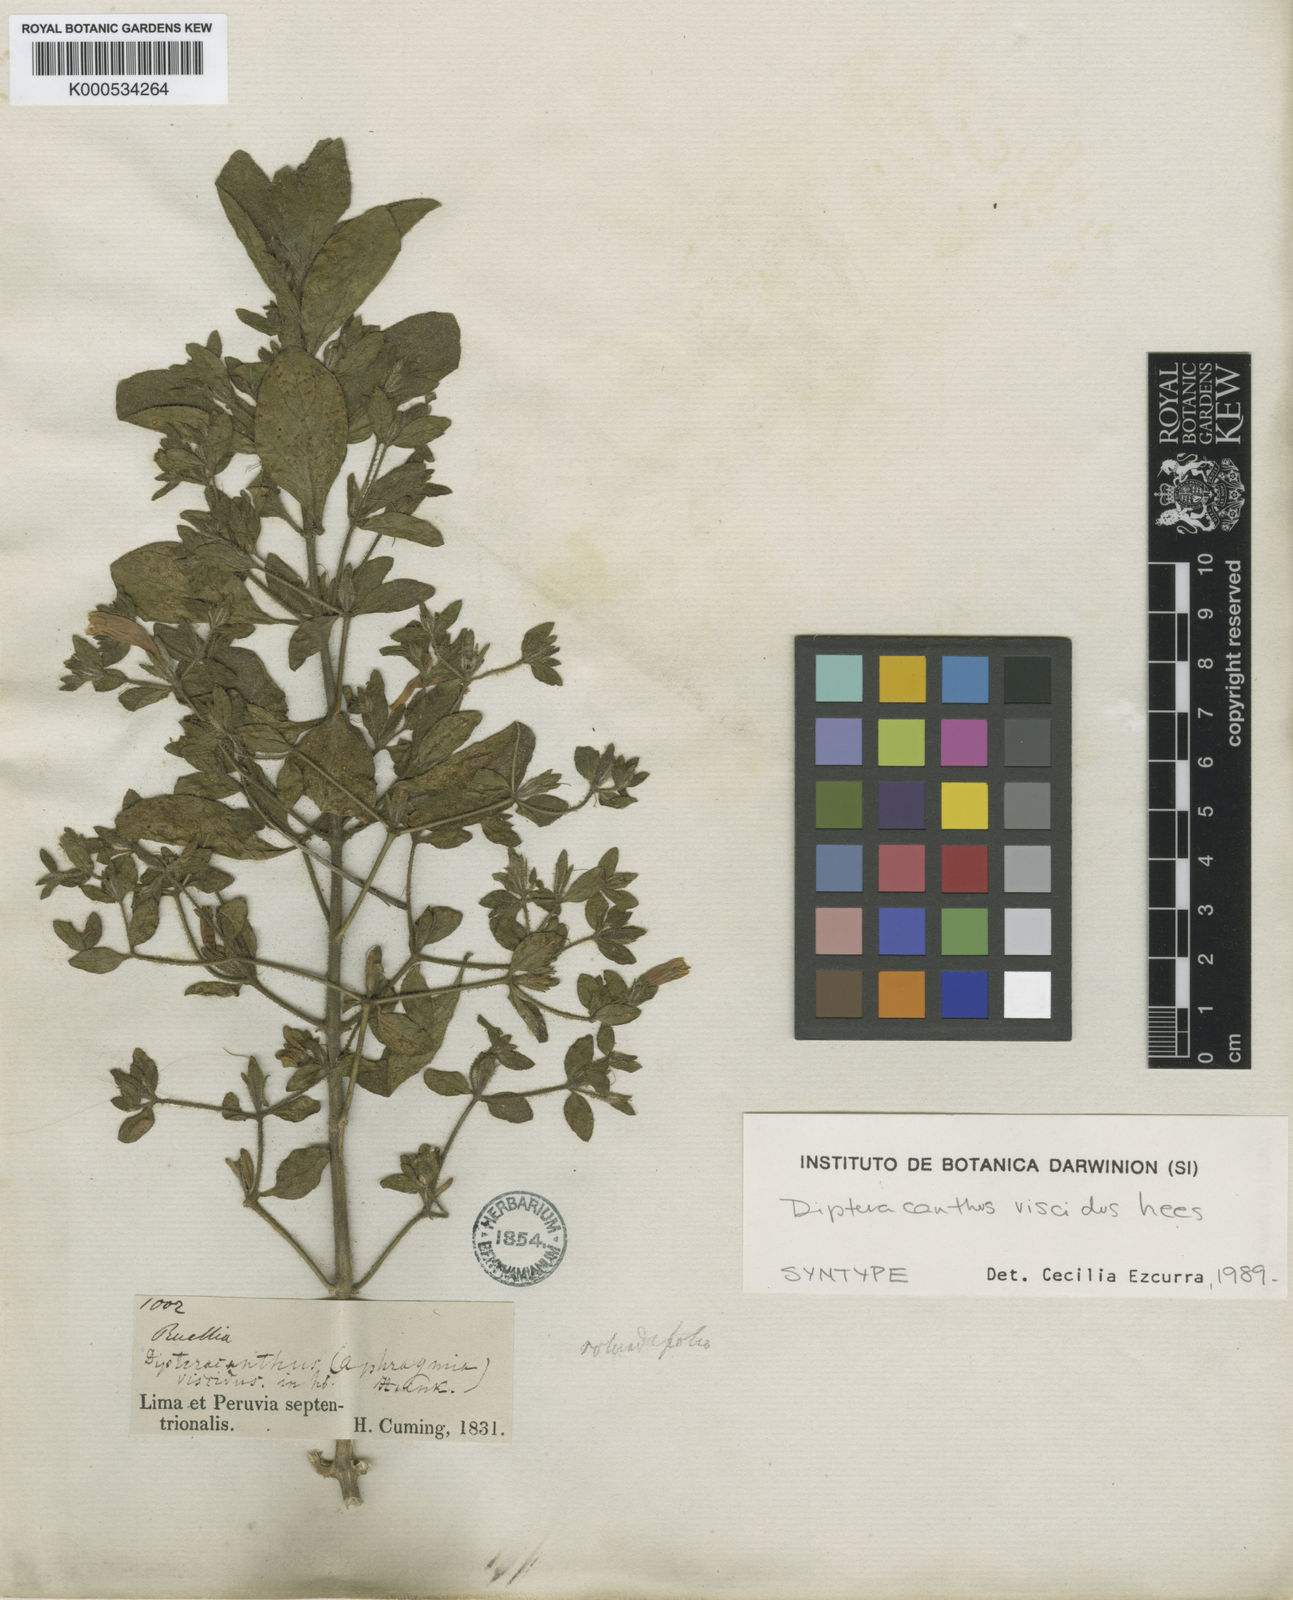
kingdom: Plantae
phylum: Tracheophyta
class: Magnoliopsida
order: Lamiales
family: Acanthaceae
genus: Ruellia
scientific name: Ruellia viscidula
